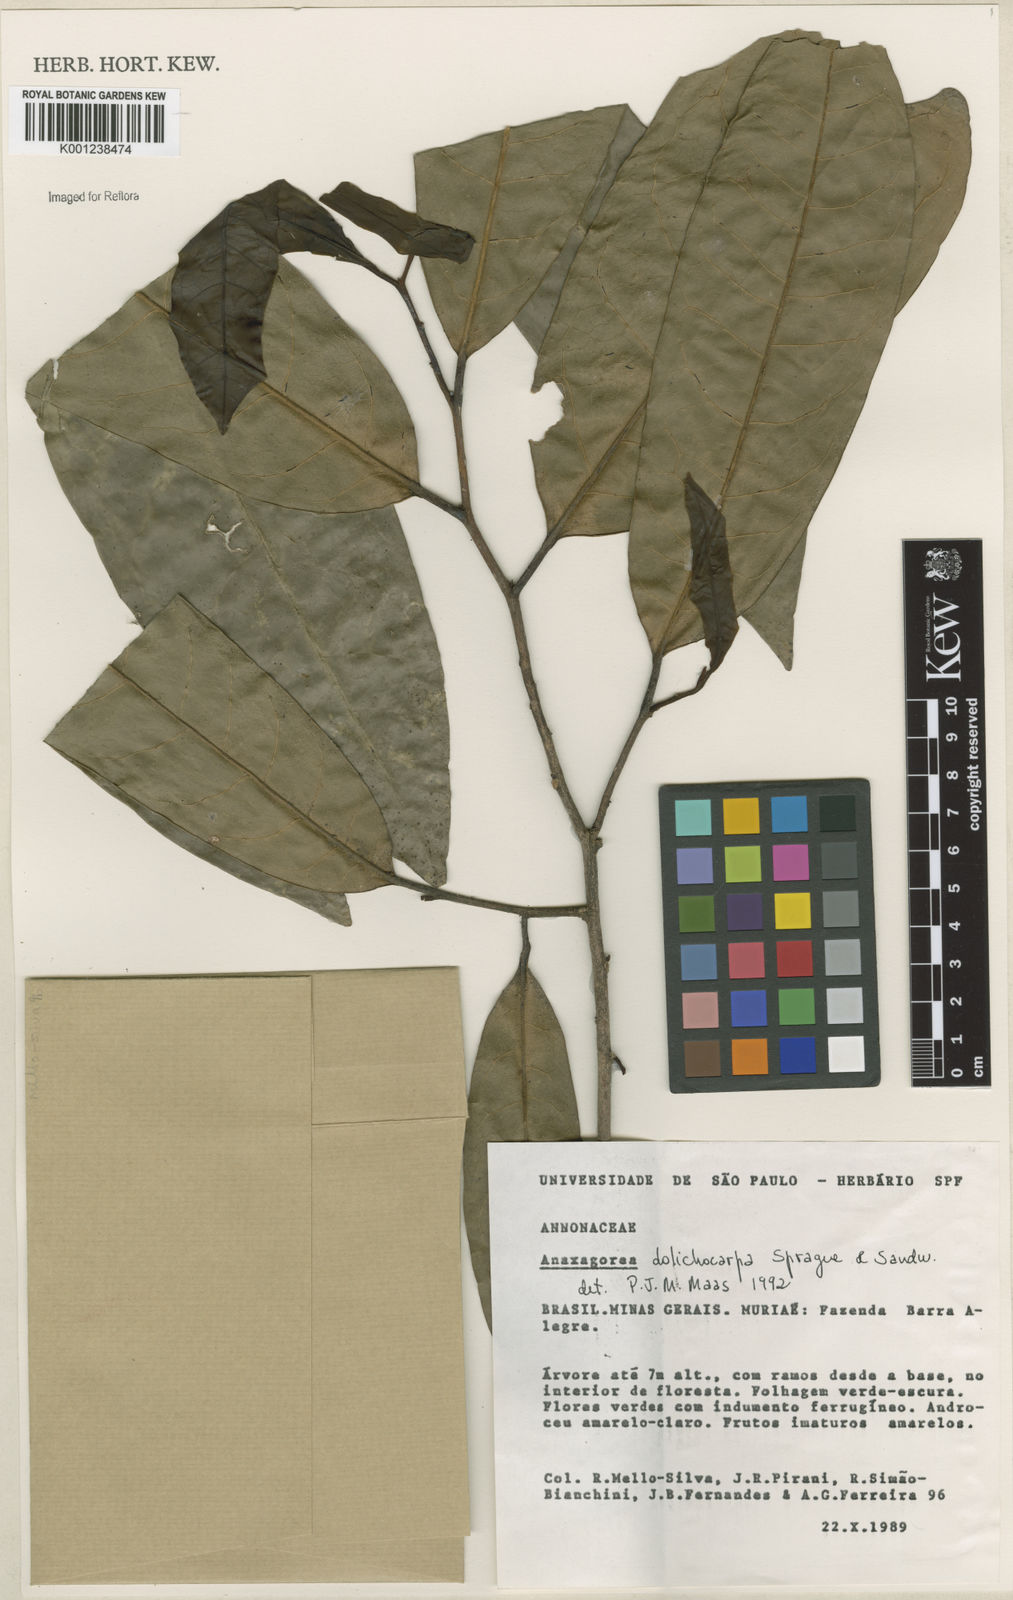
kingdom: Plantae
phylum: Tracheophyta
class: Magnoliopsida
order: Magnoliales
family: Annonaceae
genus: Anaxagorea
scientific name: Anaxagorea dolichocarpa
